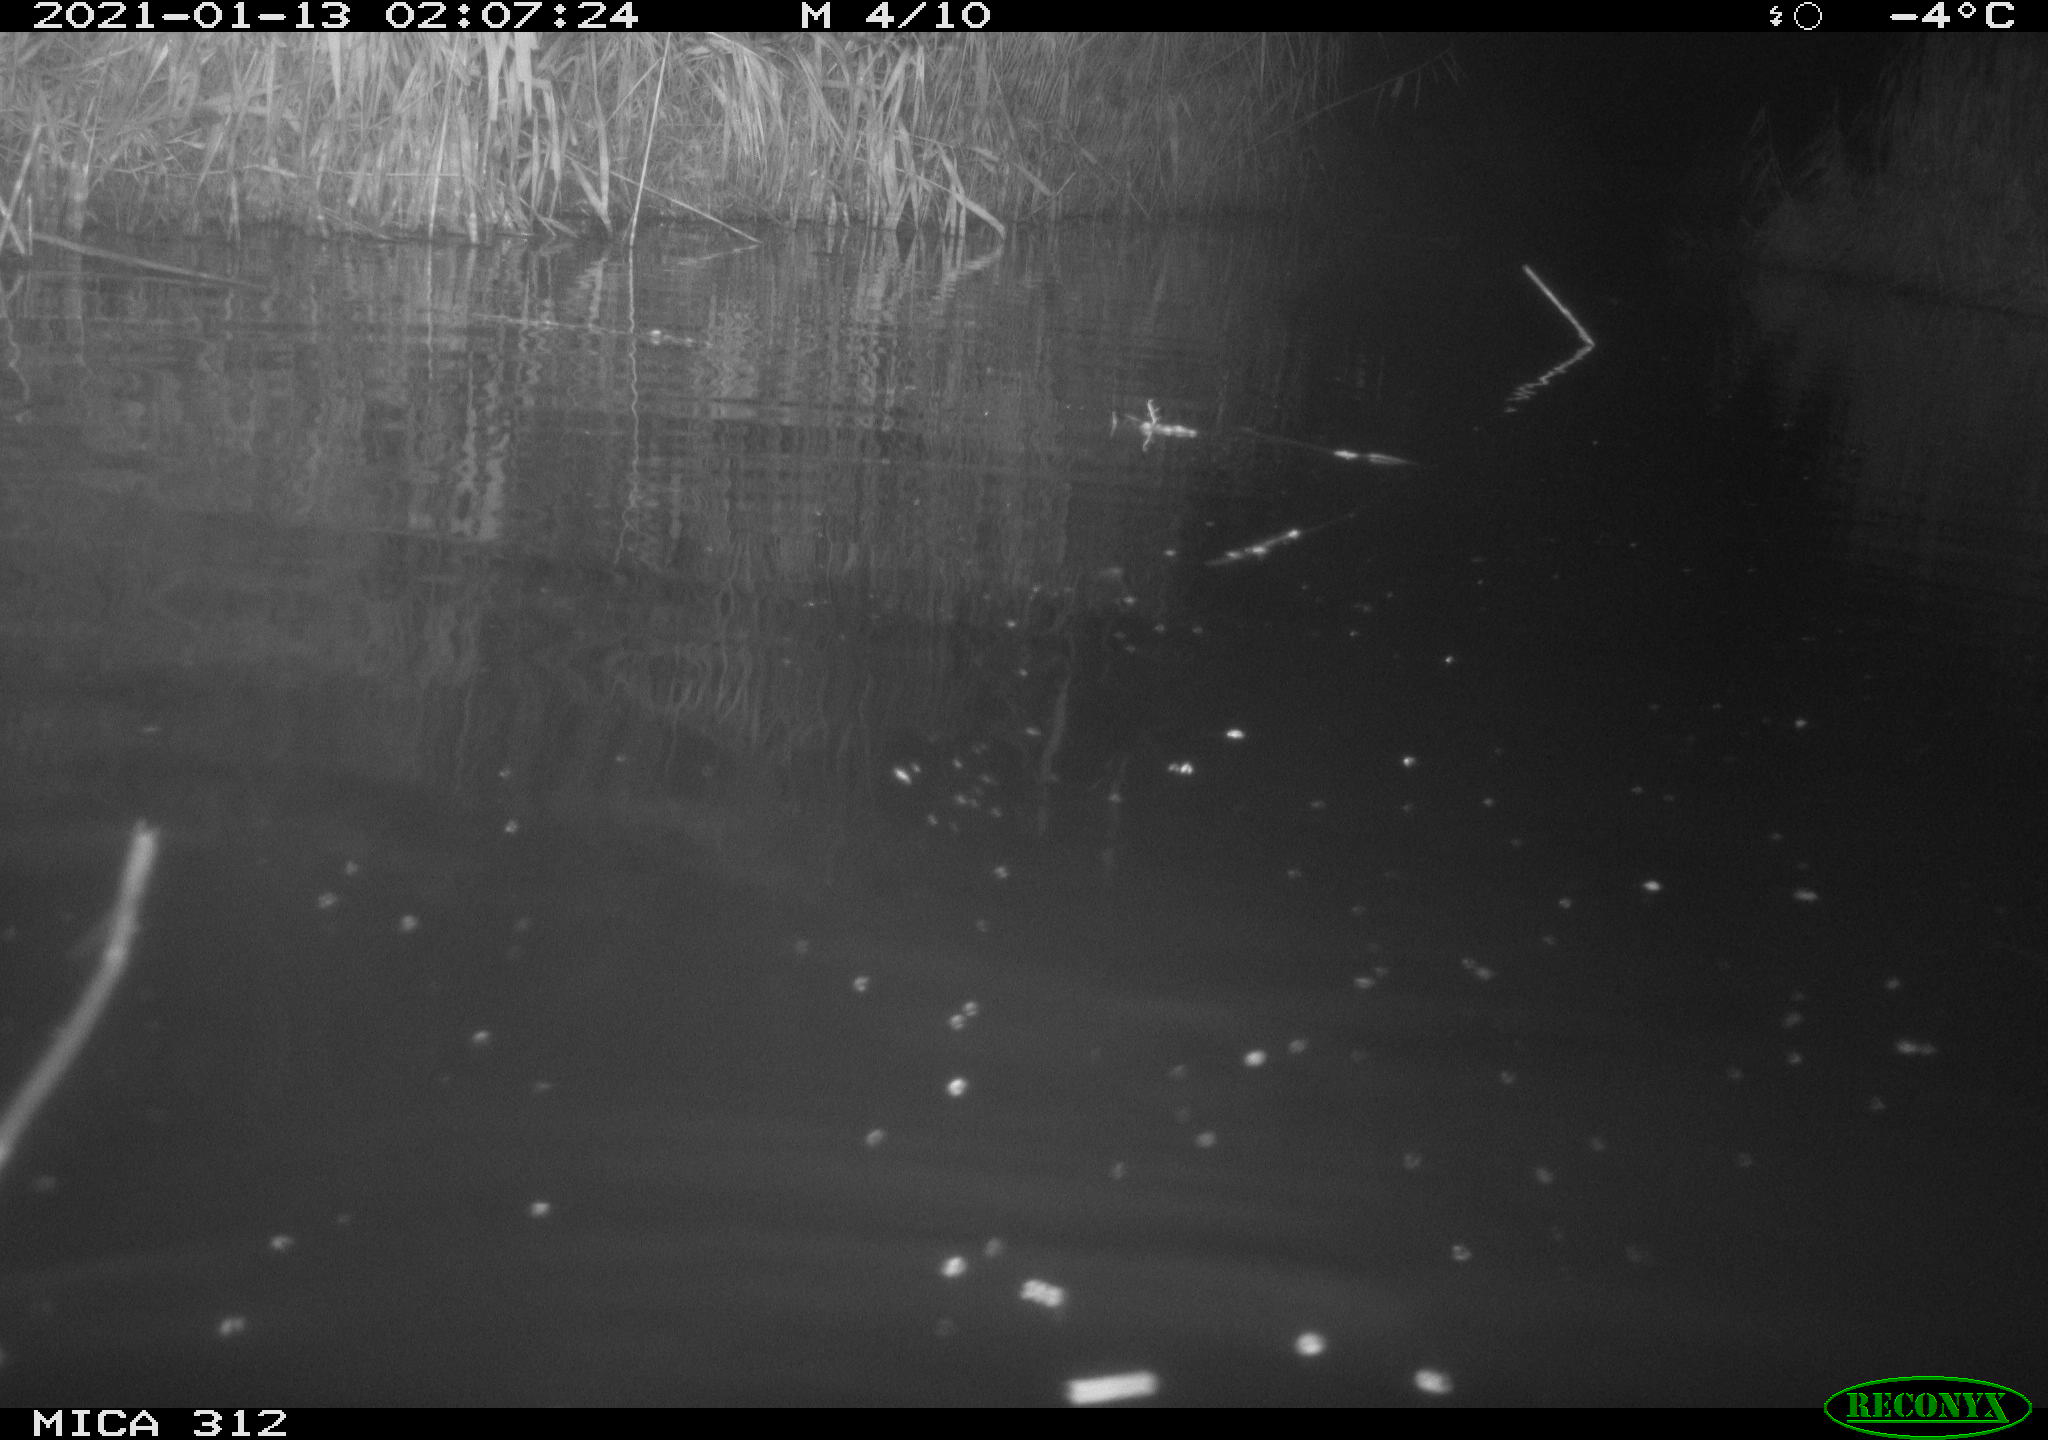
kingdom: Animalia
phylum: Chordata
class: Mammalia
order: Rodentia
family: Cricetidae
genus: Ondatra
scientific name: Ondatra zibethicus
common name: Muskrat
